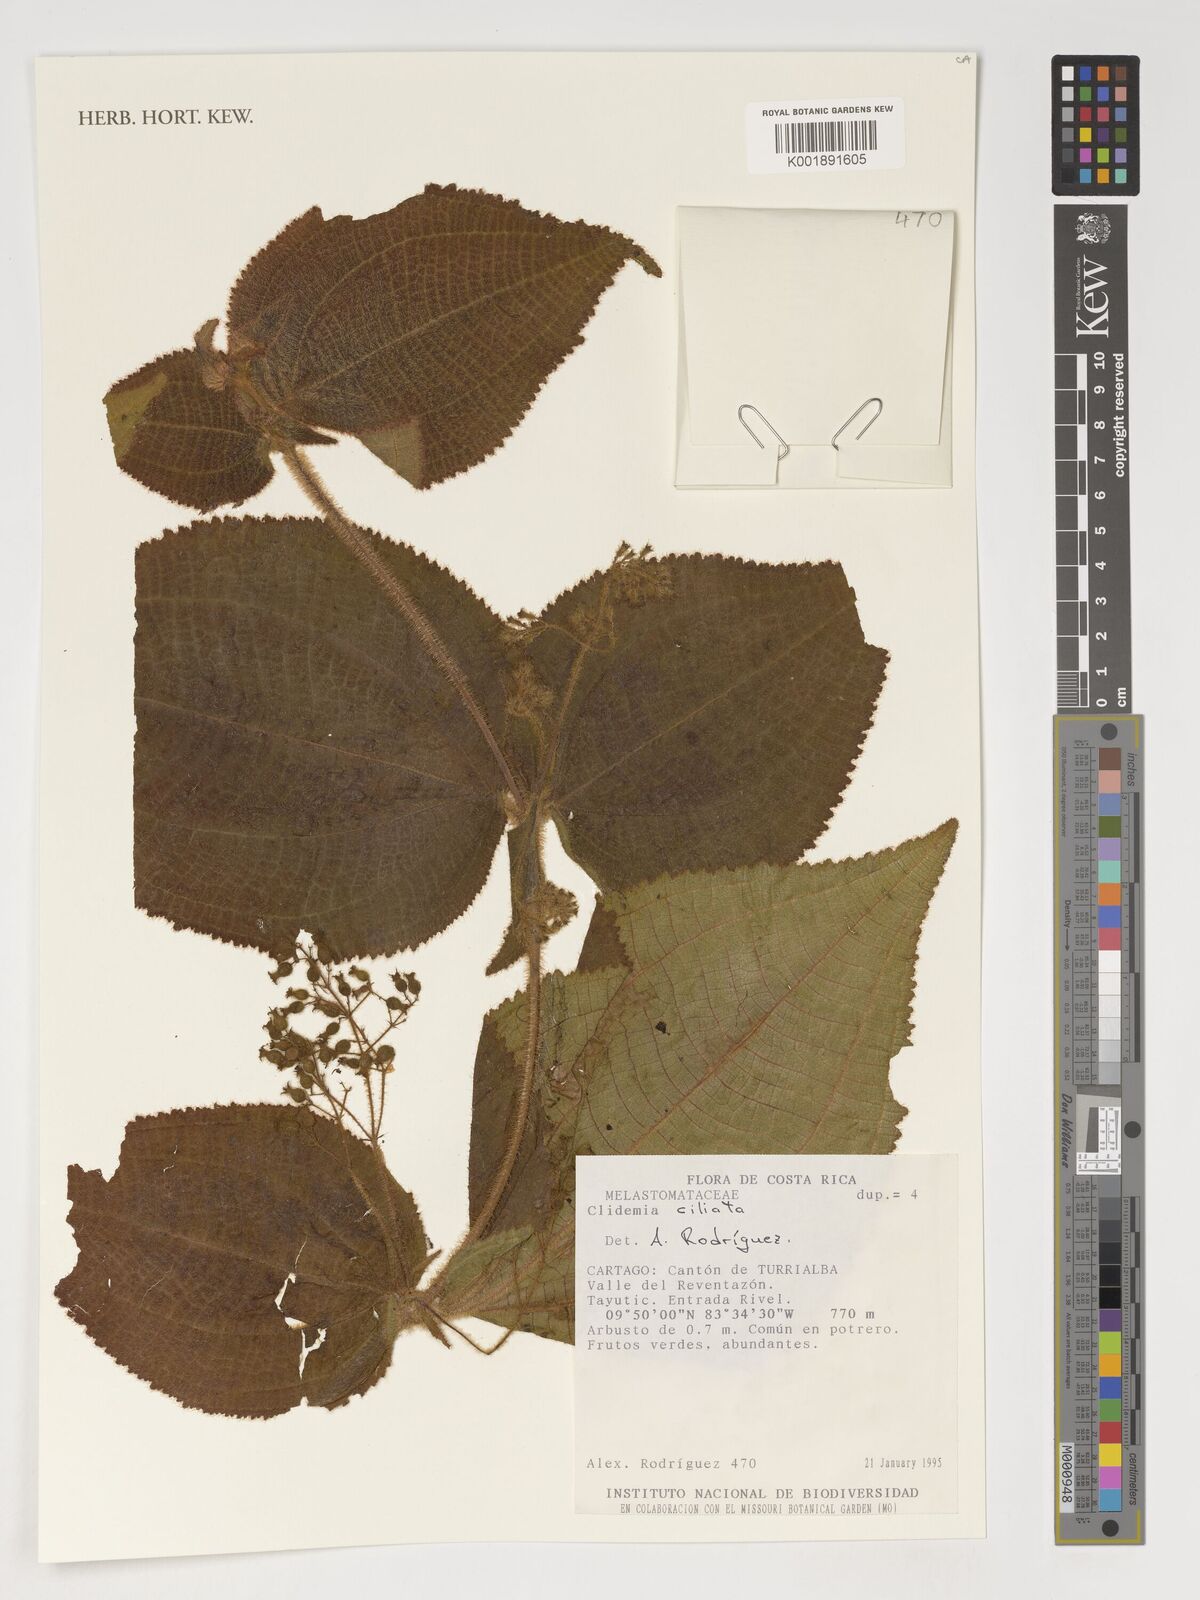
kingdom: Plantae
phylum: Tracheophyta
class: Magnoliopsida
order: Myrtales
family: Melastomataceae
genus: Miconia
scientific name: Miconia domociliata
